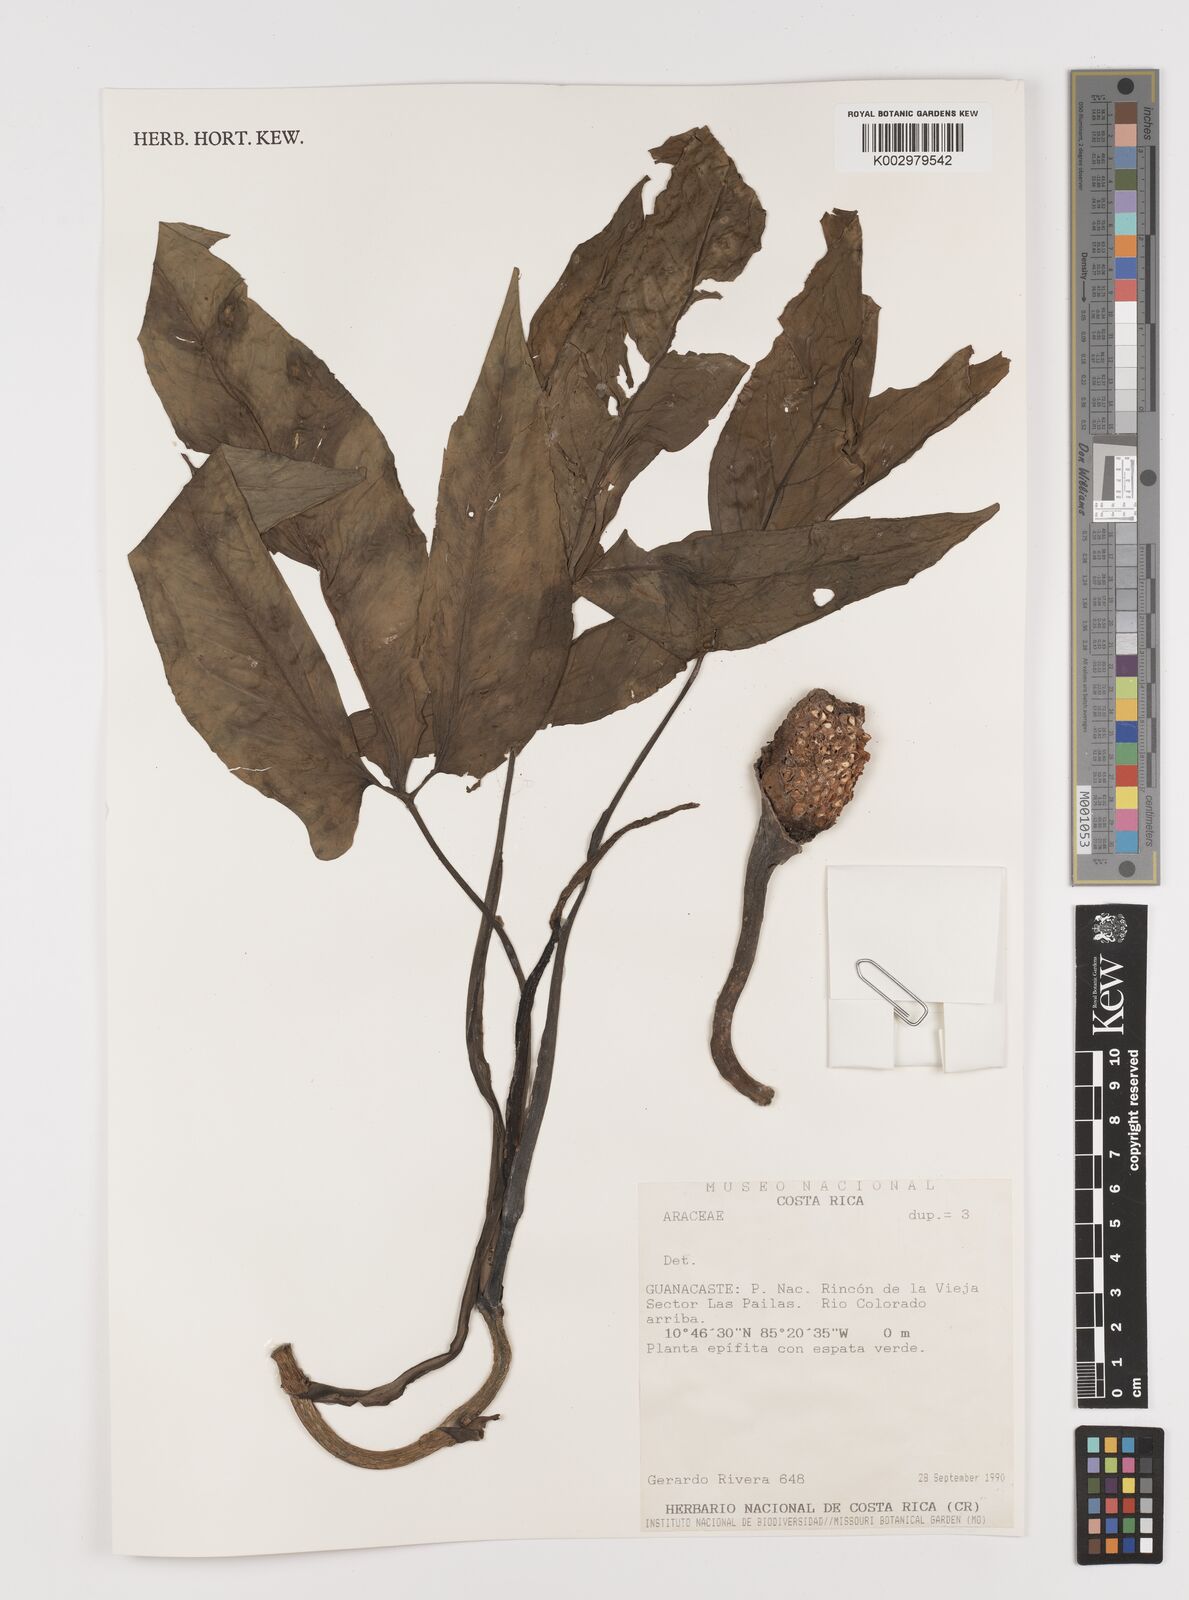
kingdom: Plantae
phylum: Tracheophyta
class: Liliopsida
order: Alismatales
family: Araceae
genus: Syngonium
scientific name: Syngonium podophyllum
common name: American evergreen
